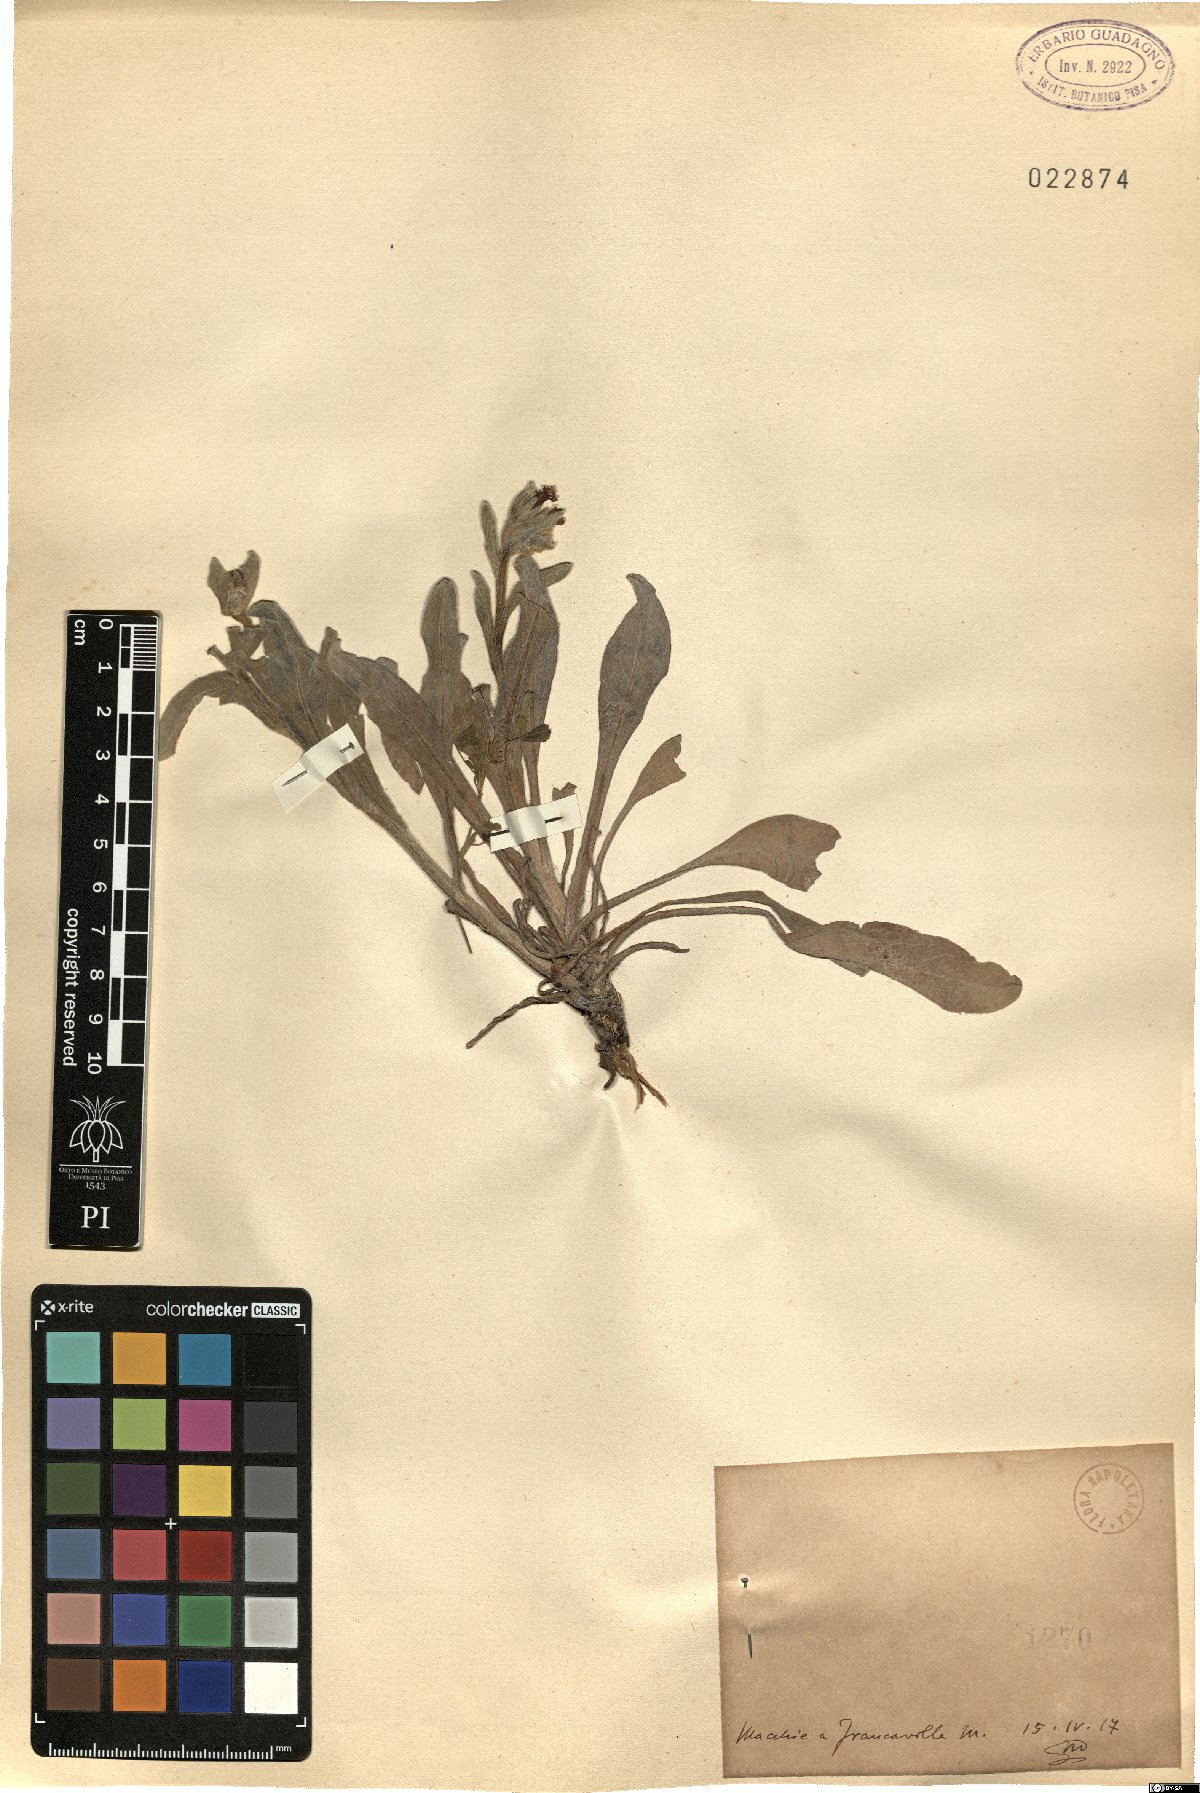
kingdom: Plantae
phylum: Tracheophyta
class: Magnoliopsida
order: Boraginales
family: Boraginaceae
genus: Cynoglossum
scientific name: Cynoglossum
